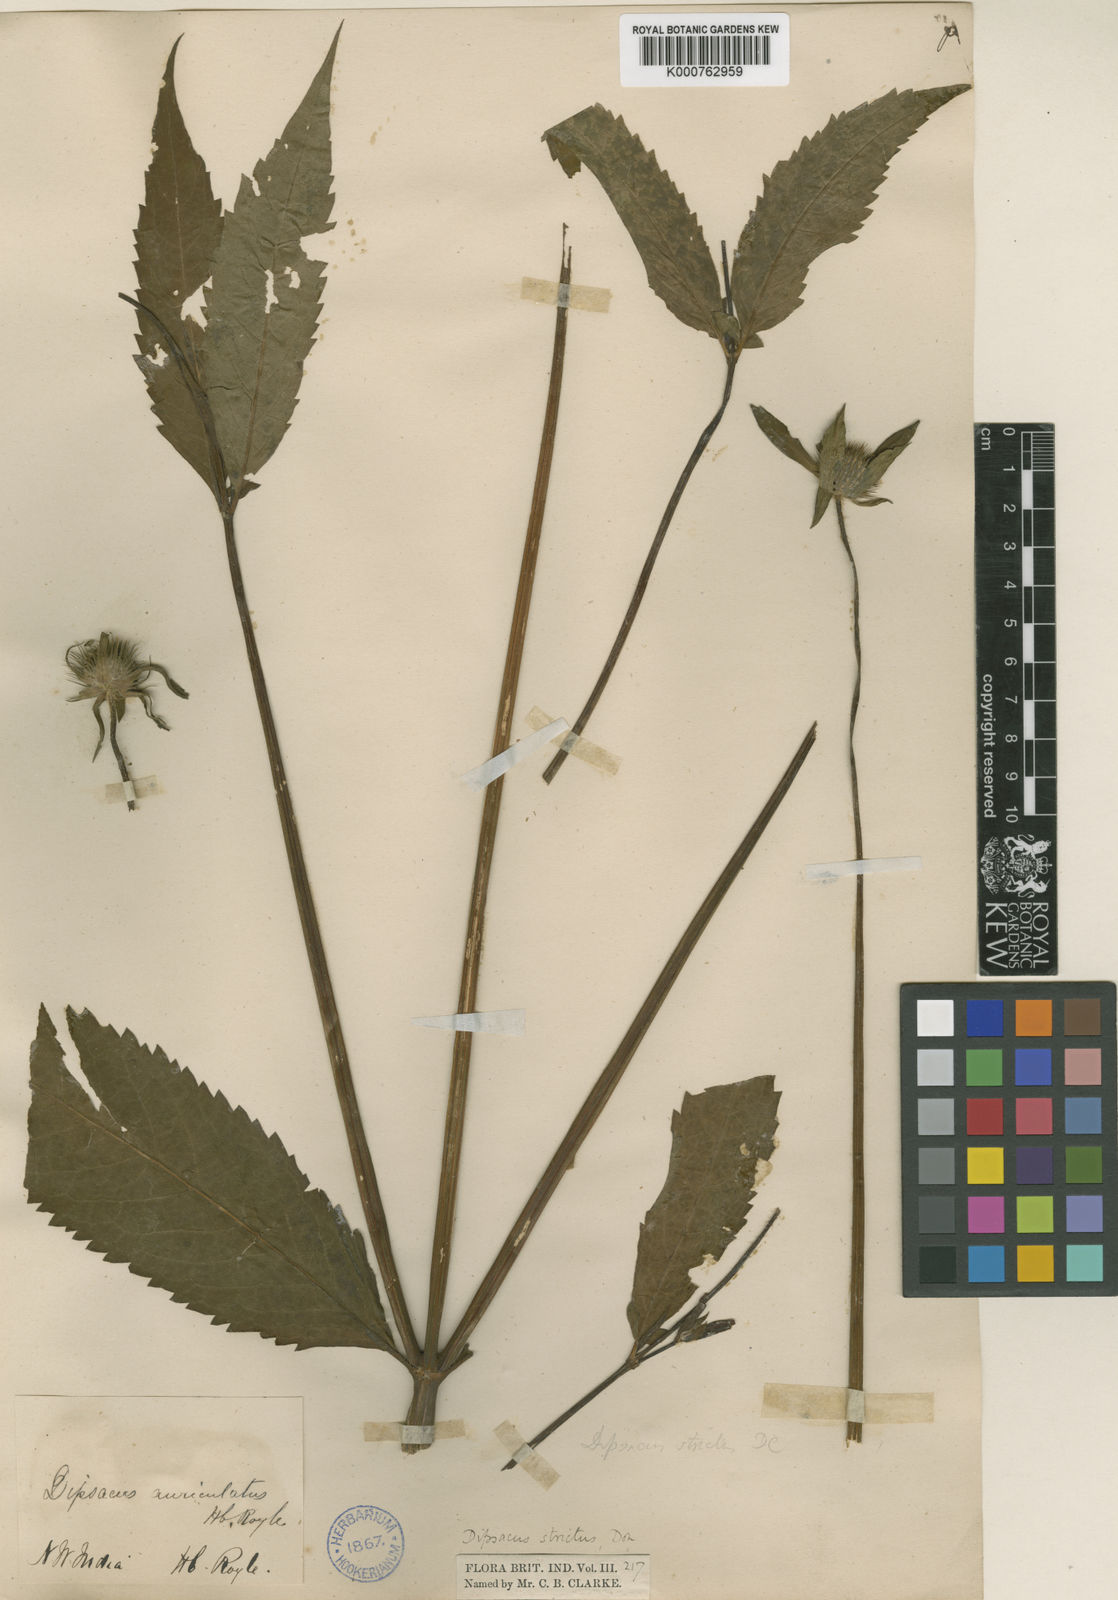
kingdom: Plantae
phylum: Tracheophyta
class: Magnoliopsida
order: Dipsacales
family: Caprifoliaceae
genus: Dipsacus
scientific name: Dipsacus inermis
